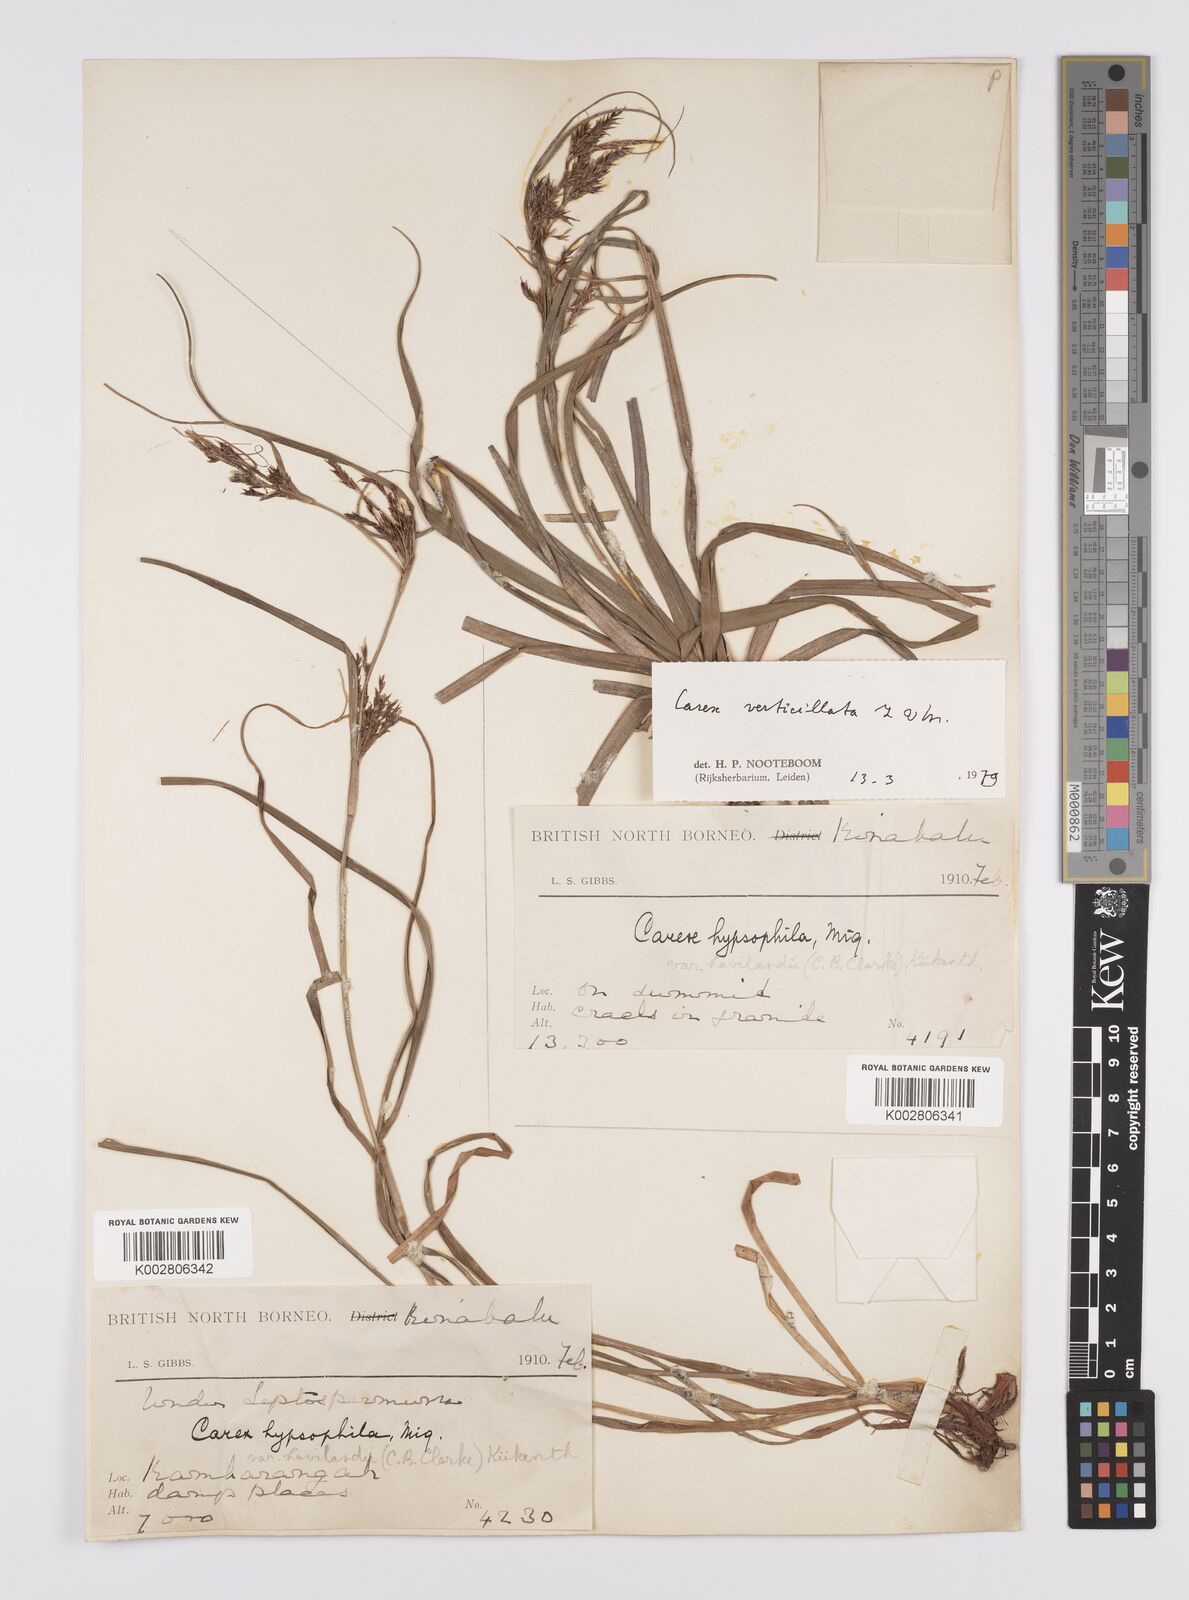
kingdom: Plantae
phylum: Tracheophyta
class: Liliopsida
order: Poales
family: Cyperaceae
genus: Carex
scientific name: Carex verticillata
